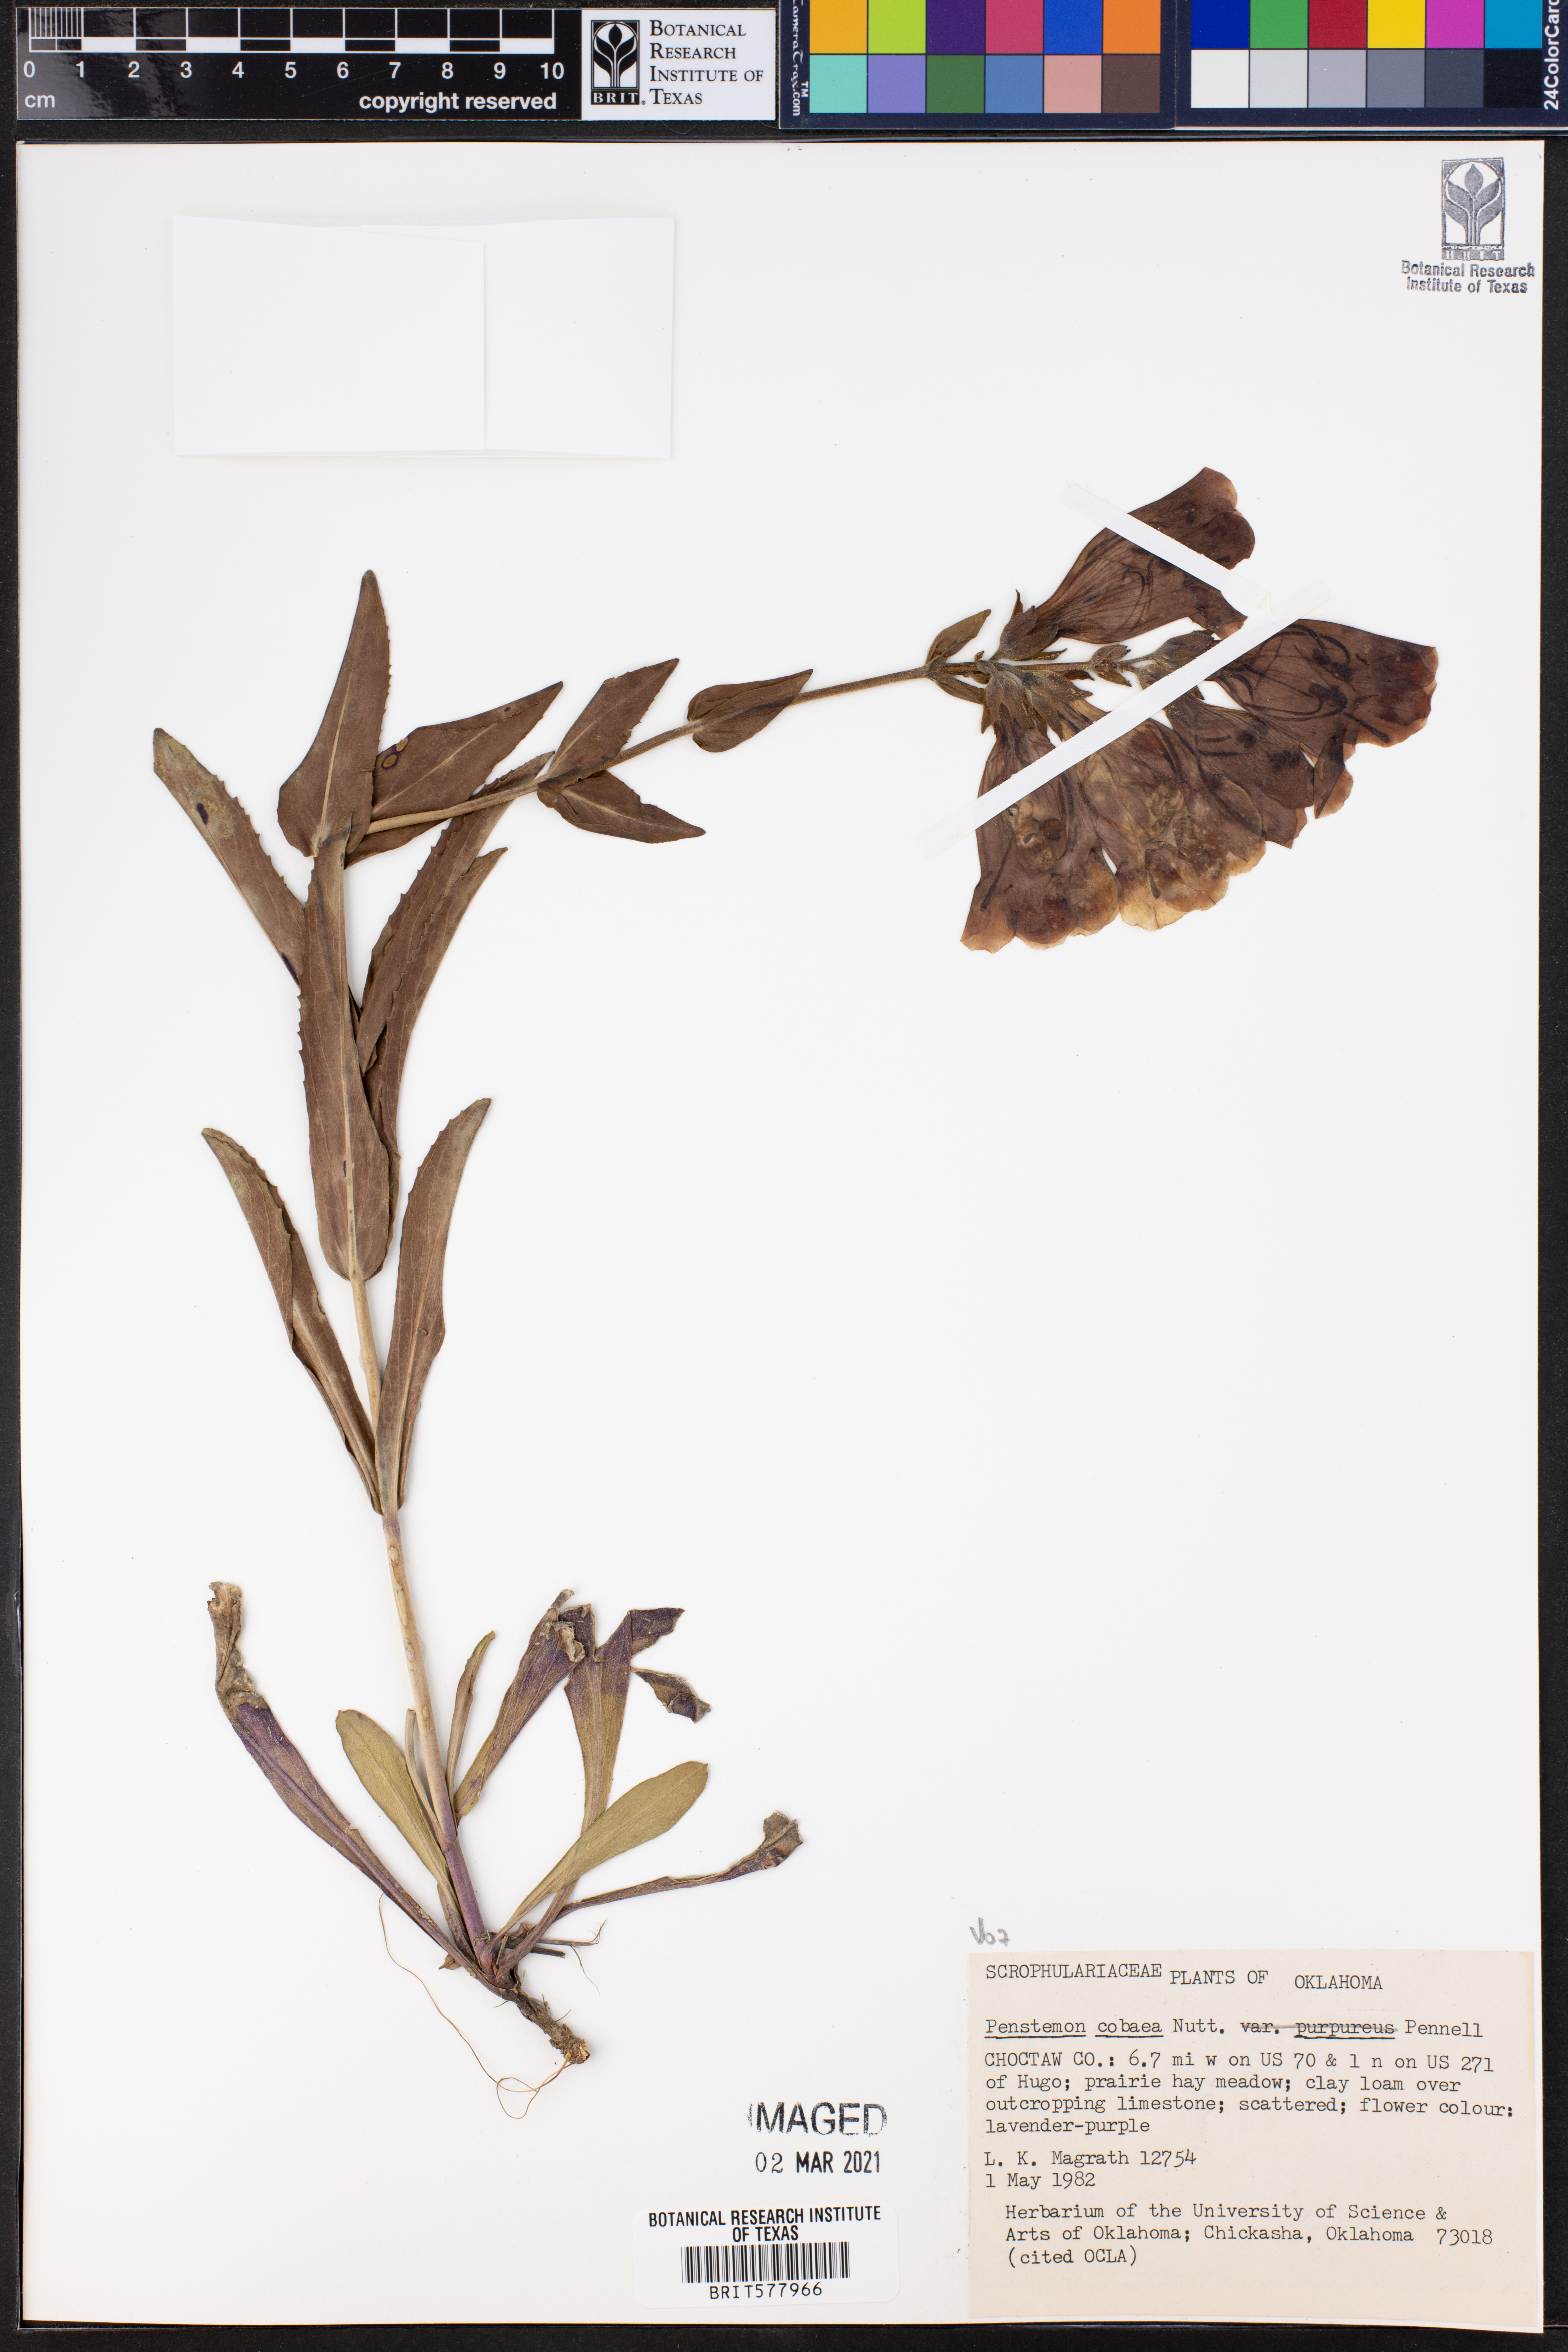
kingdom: Plantae
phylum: Tracheophyta
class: Magnoliopsida
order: Lamiales
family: Plantaginaceae
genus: Penstemon
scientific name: Penstemon cobaea
